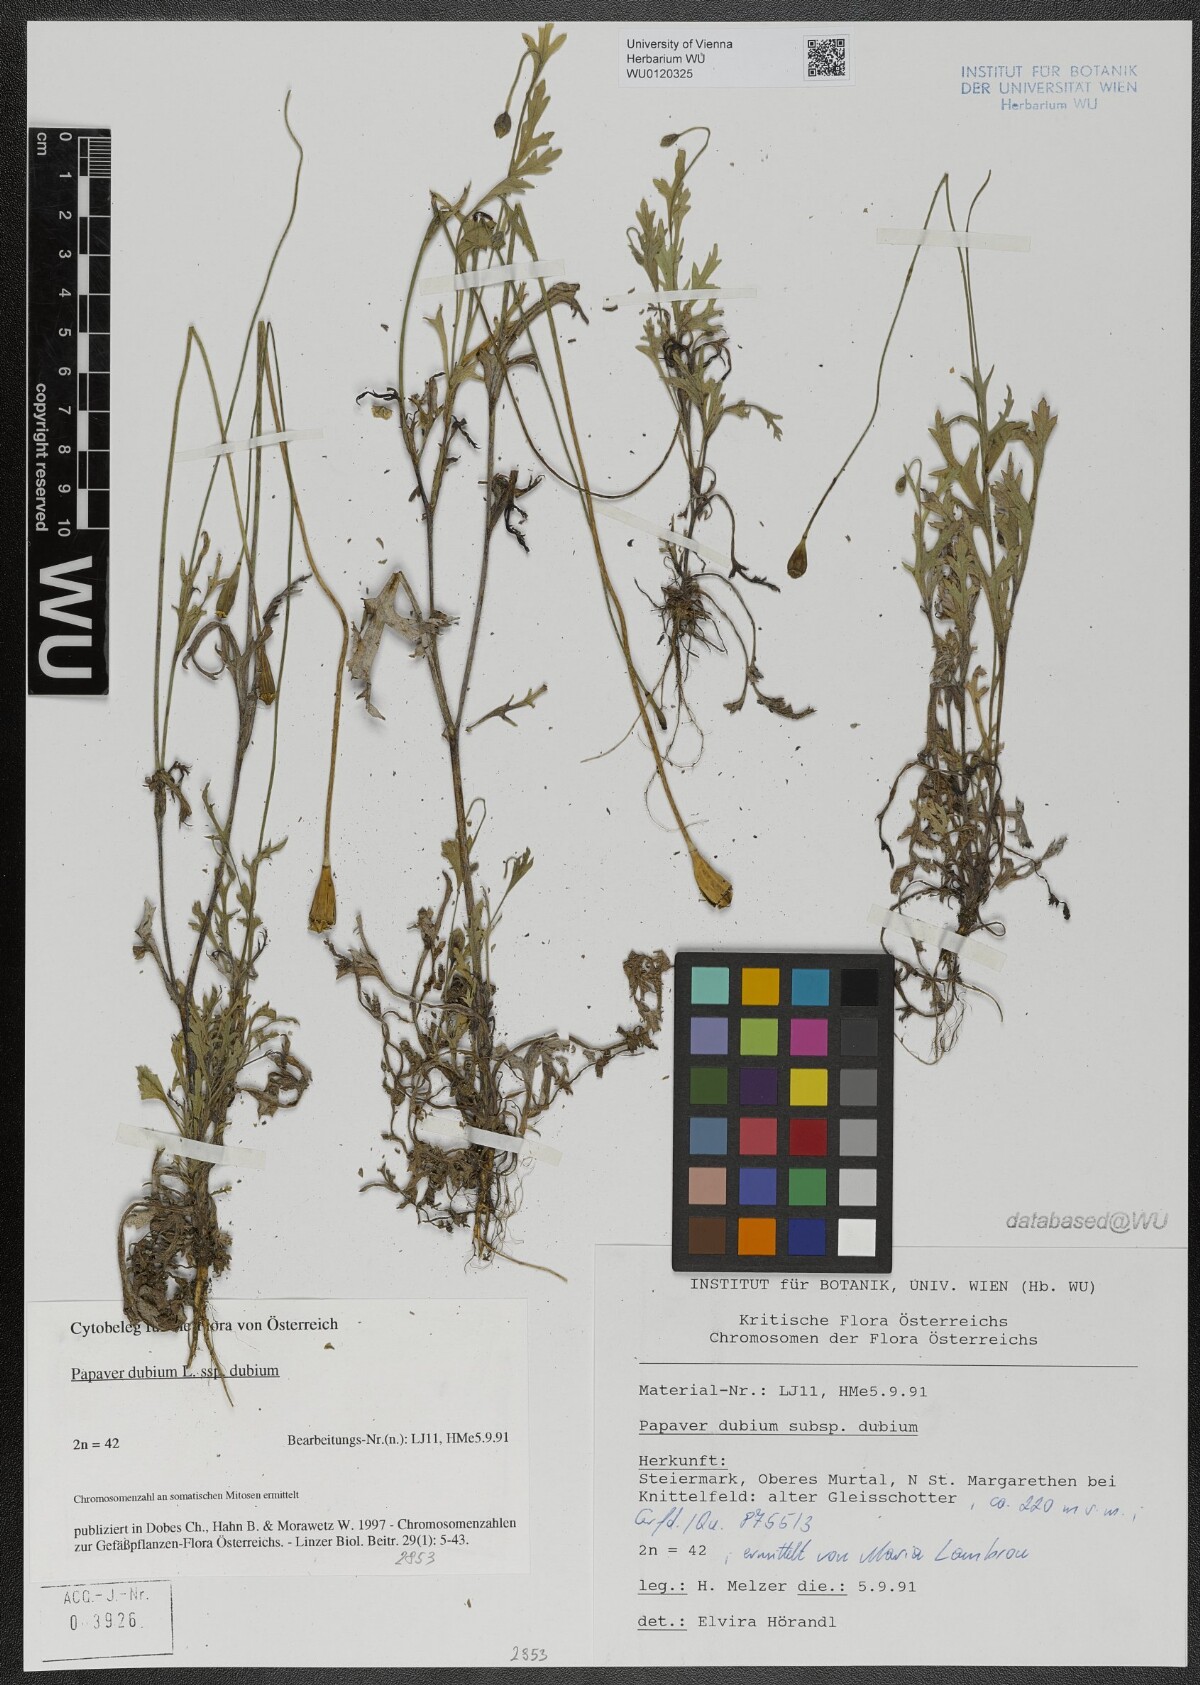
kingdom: Plantae
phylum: Tracheophyta
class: Magnoliopsida
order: Ranunculales
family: Papaveraceae
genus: Papaver
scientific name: Papaver dubium
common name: Long-headed poppy
